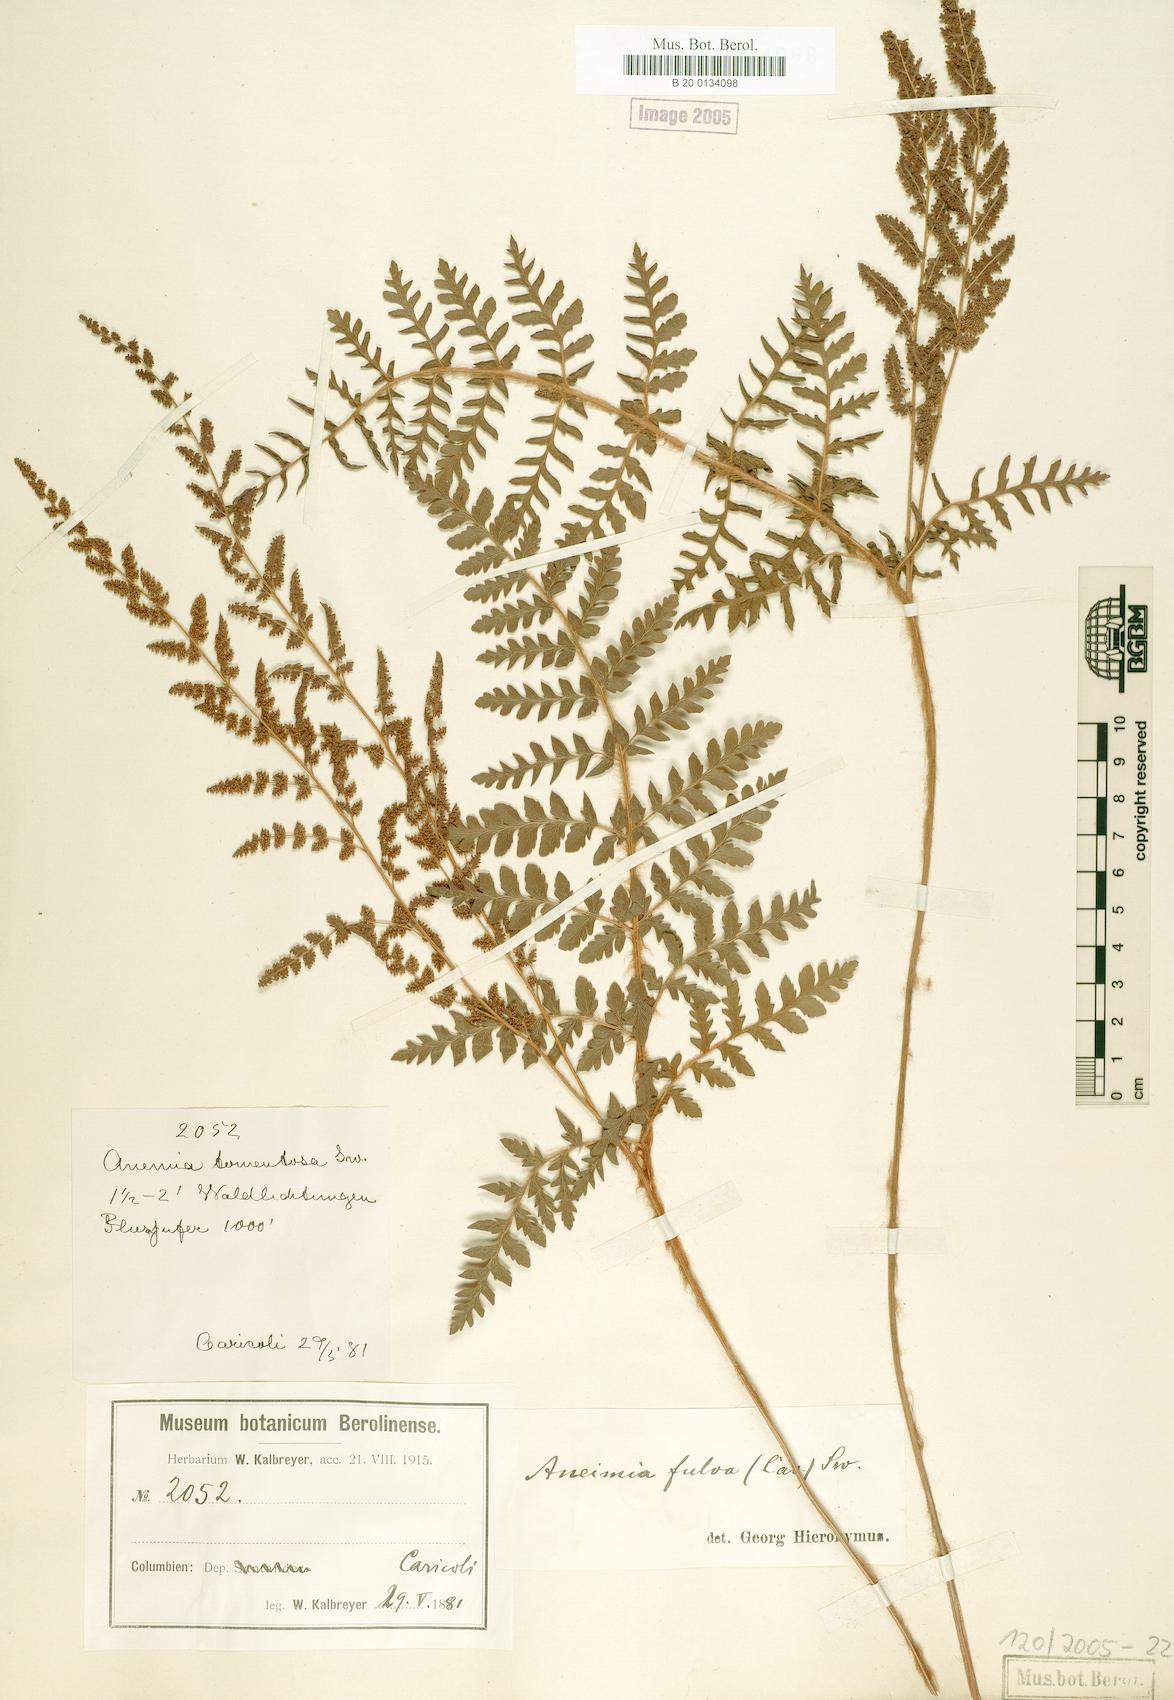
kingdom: Plantae
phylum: Tracheophyta
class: Polypodiopsida
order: Schizaeales
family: Anemiaceae
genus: Anemia
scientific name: Anemia flexuosa
